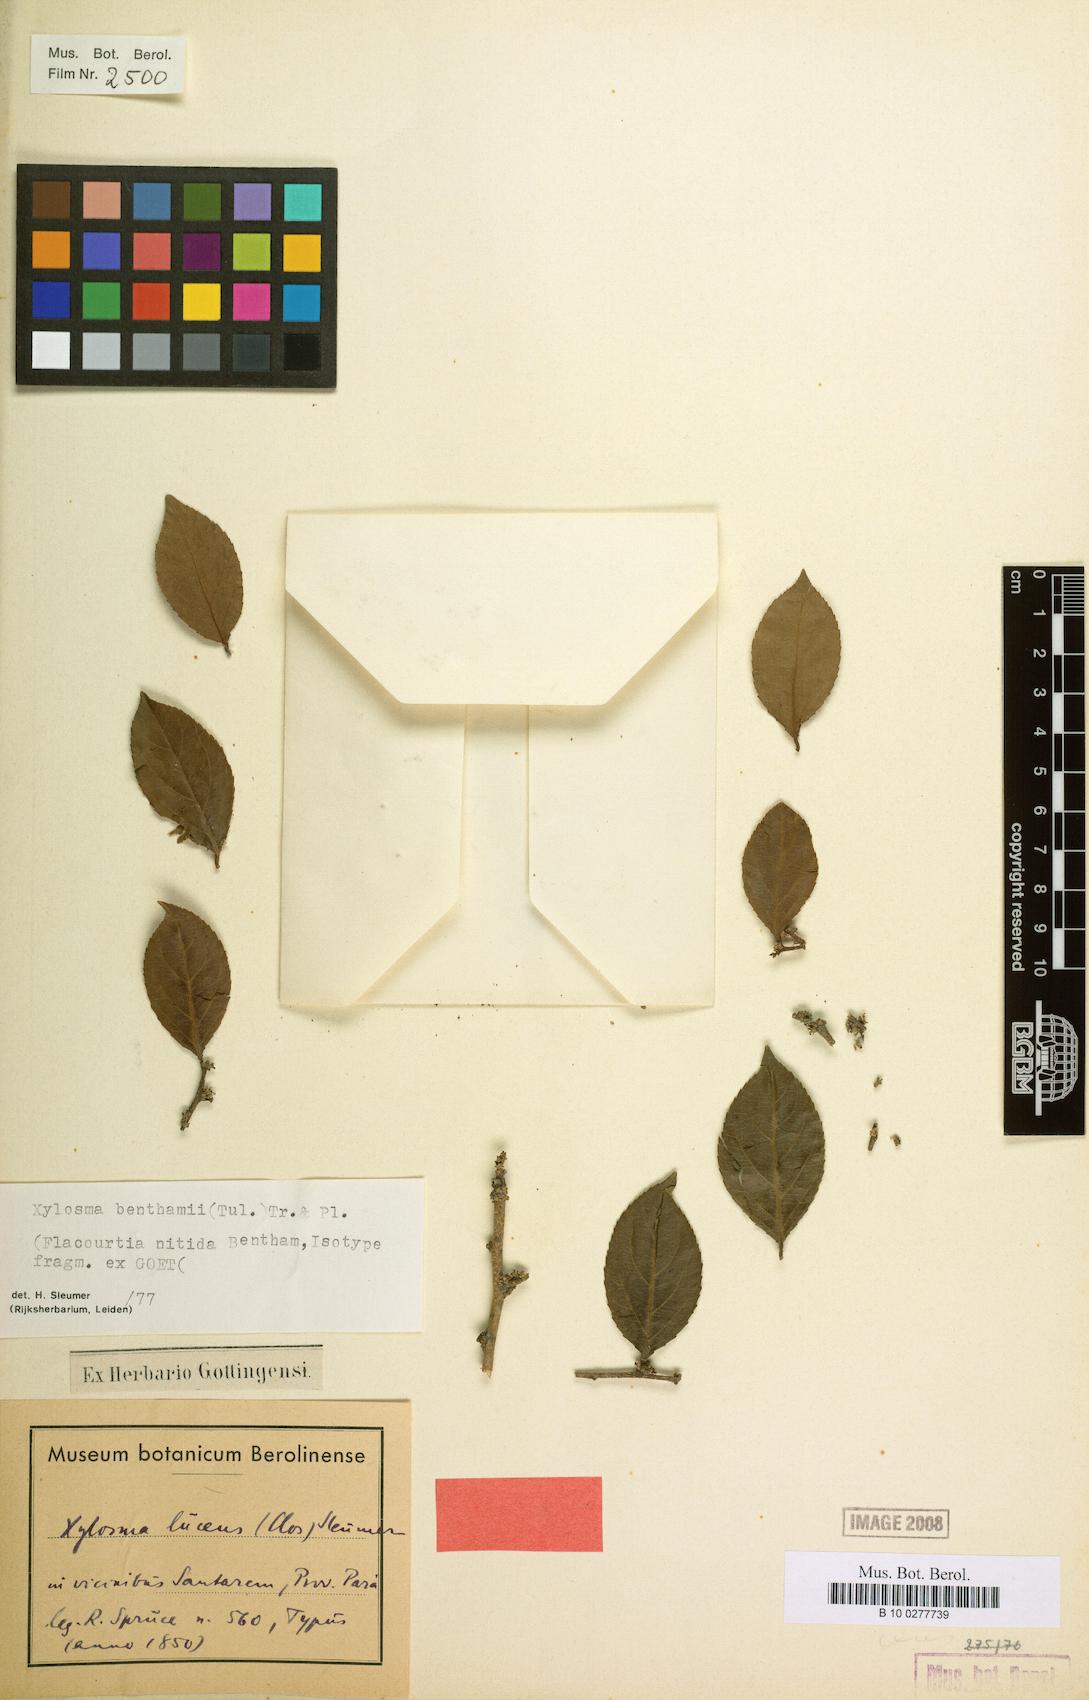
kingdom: Plantae
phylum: Tracheophyta
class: Magnoliopsida
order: Malpighiales
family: Salicaceae
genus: Xylosma
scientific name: Xylosma benthamii
